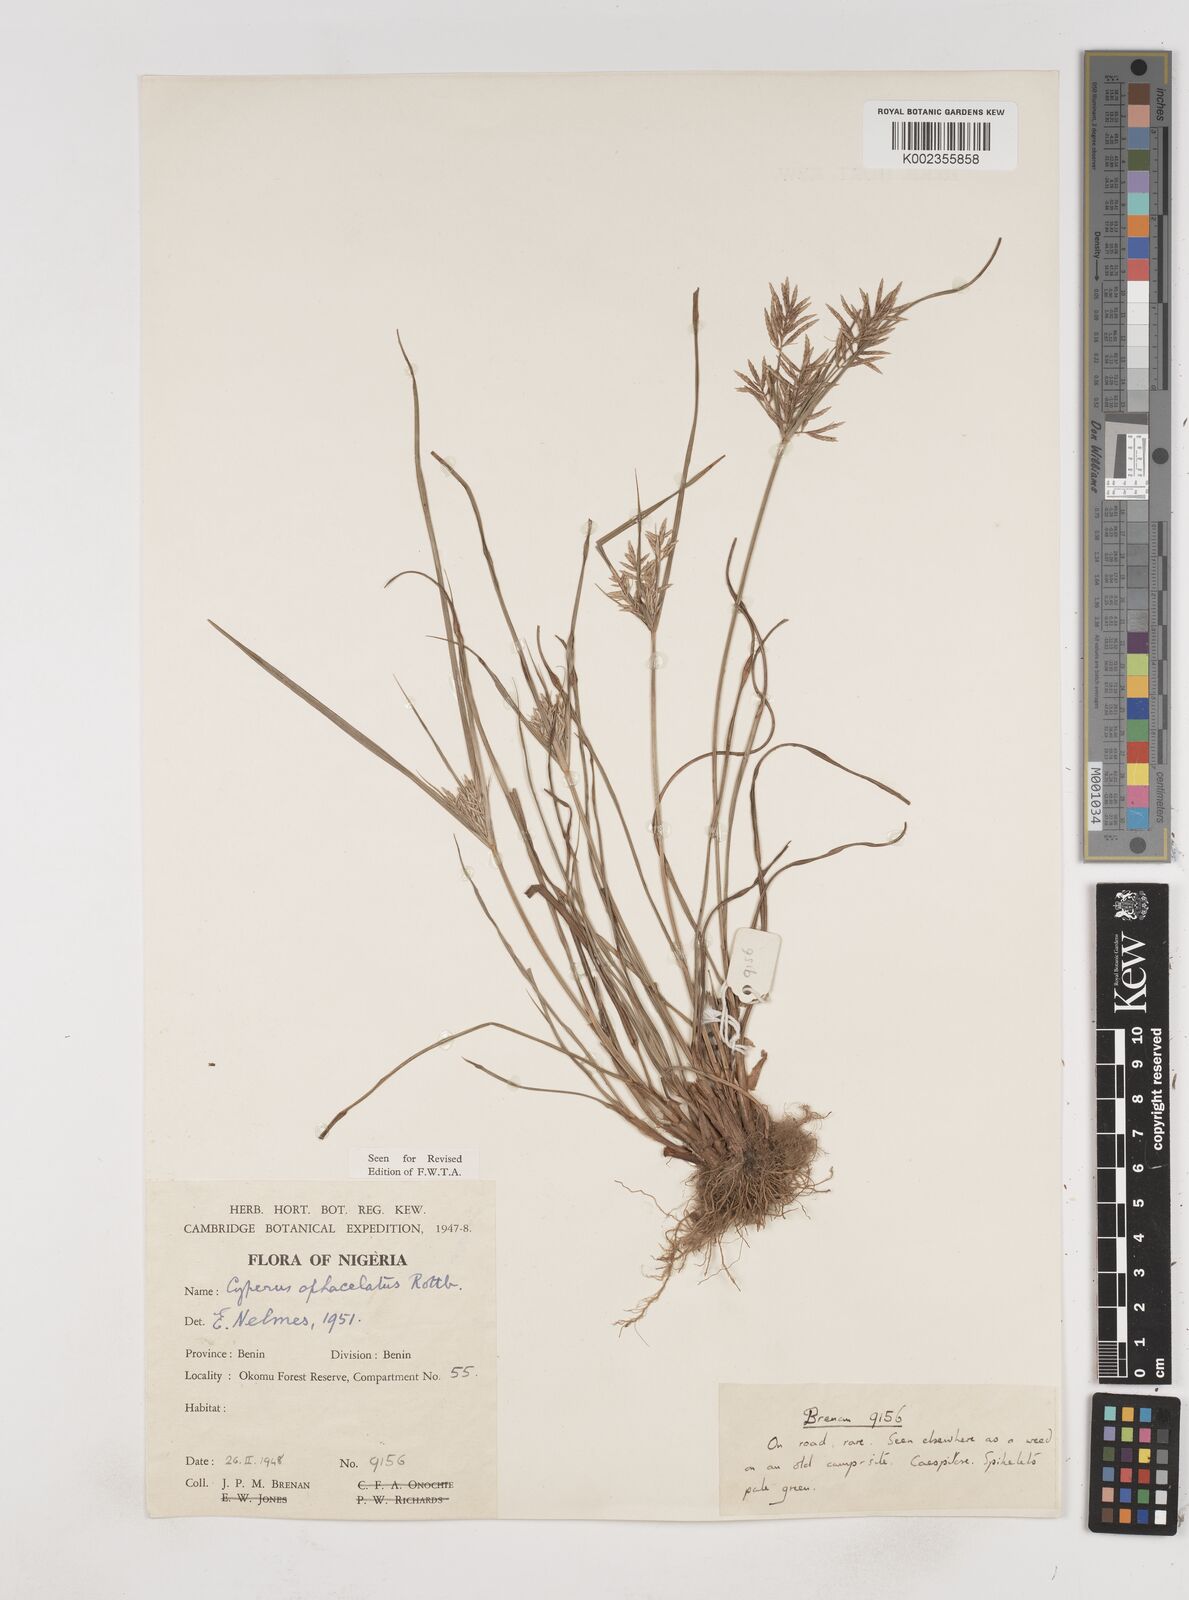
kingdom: Plantae
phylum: Tracheophyta
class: Liliopsida
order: Poales
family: Cyperaceae
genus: Cyperus
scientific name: Cyperus sphacelatus
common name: Roadside flatsedge
